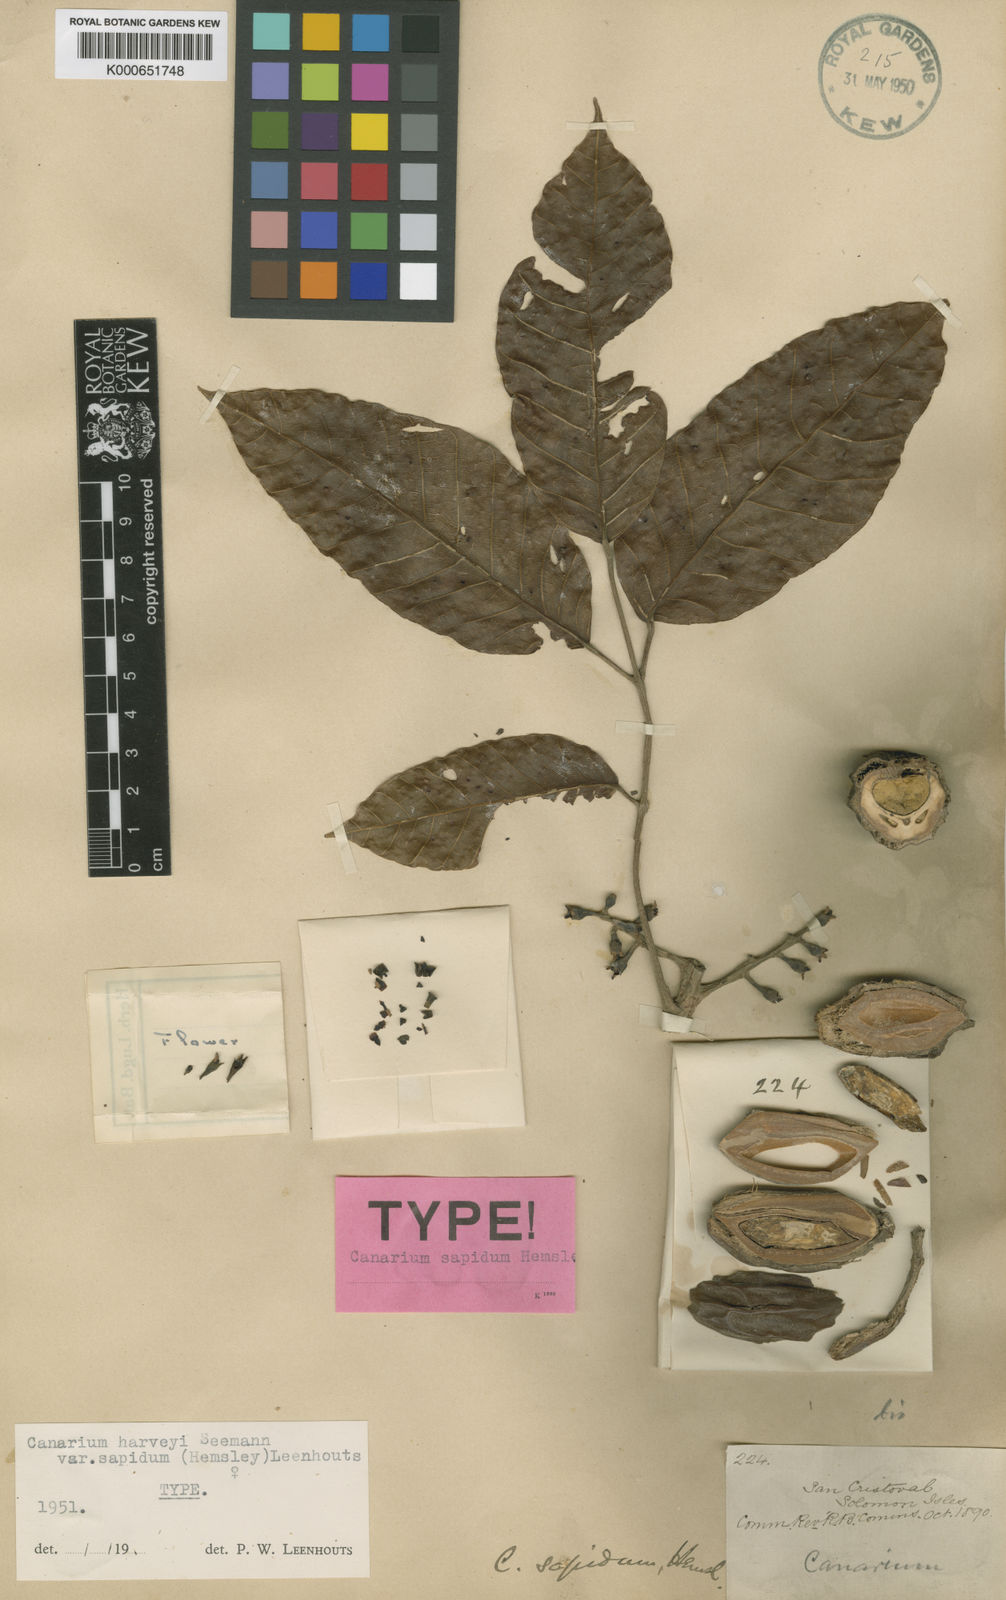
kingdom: Plantae
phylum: Tracheophyta
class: Magnoliopsida
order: Sapindales
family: Burseraceae
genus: Canarium
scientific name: Canarium harveyi
